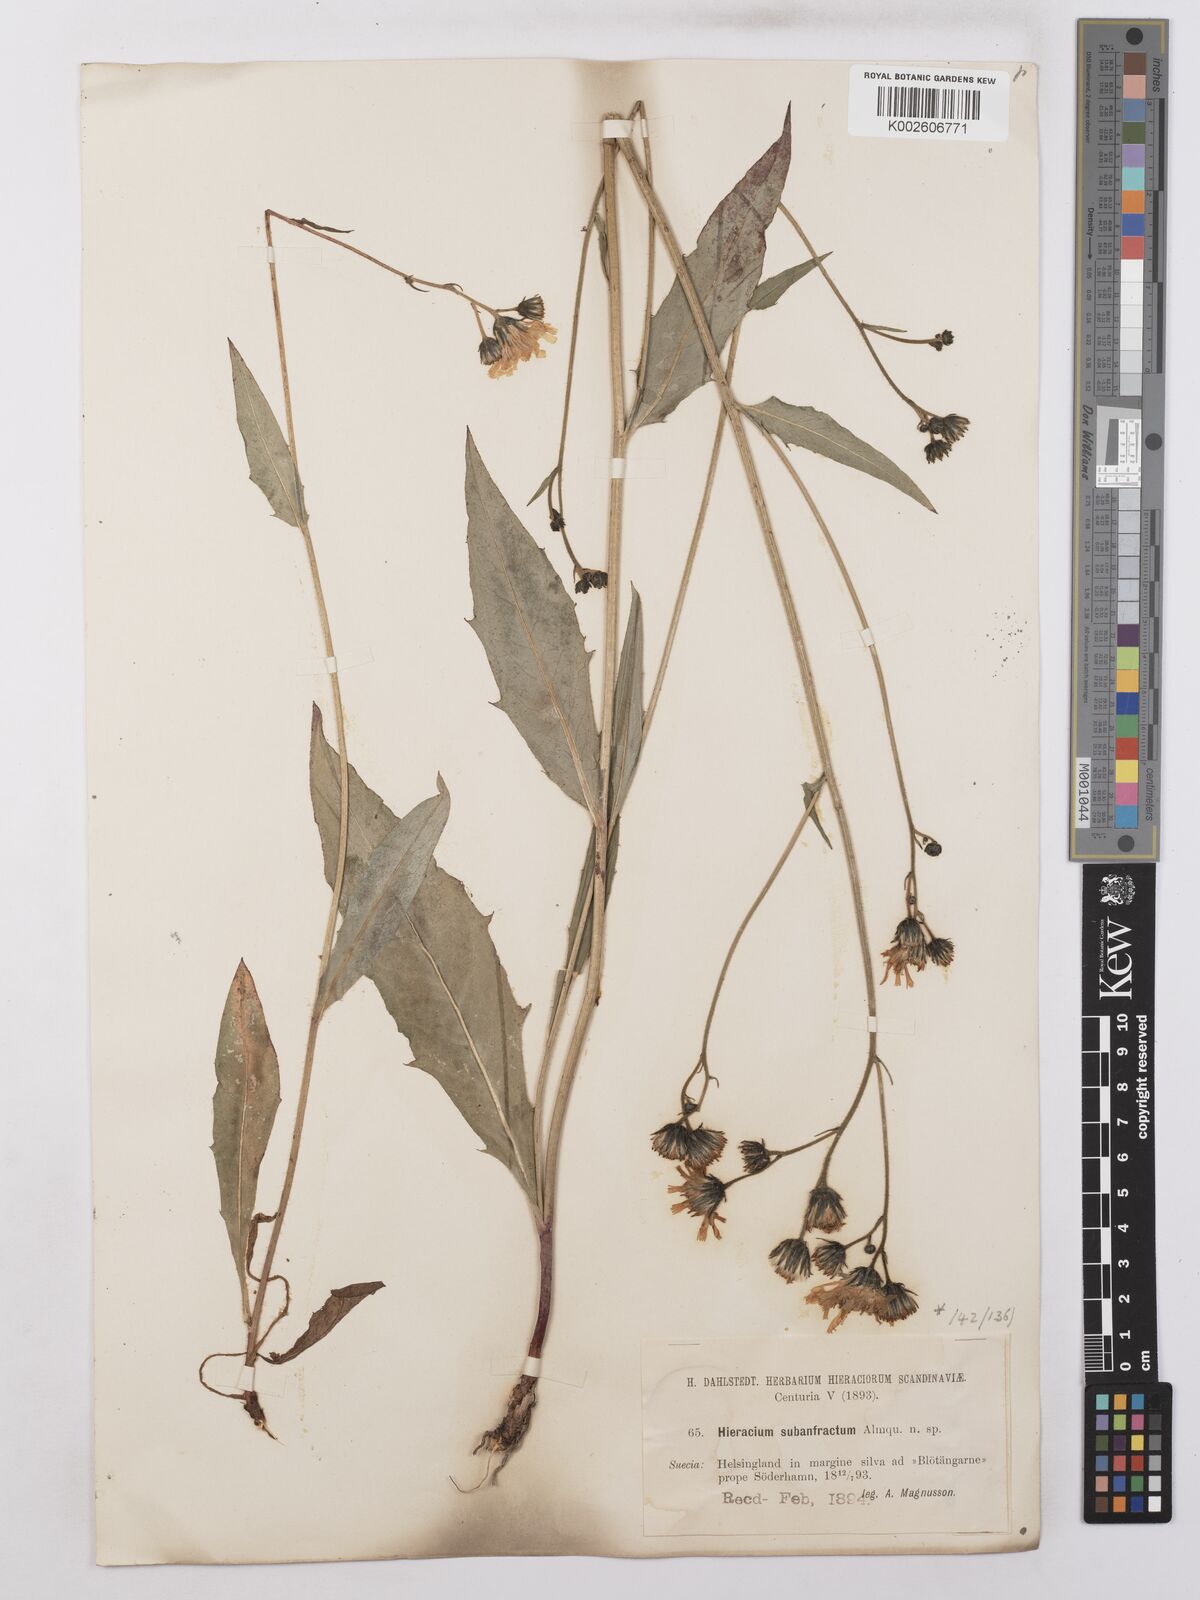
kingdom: Plantae
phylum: Tracheophyta
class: Magnoliopsida
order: Asterales
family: Asteraceae
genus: Hieracium
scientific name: Hieracium lachenalii
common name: Common hawkweed
